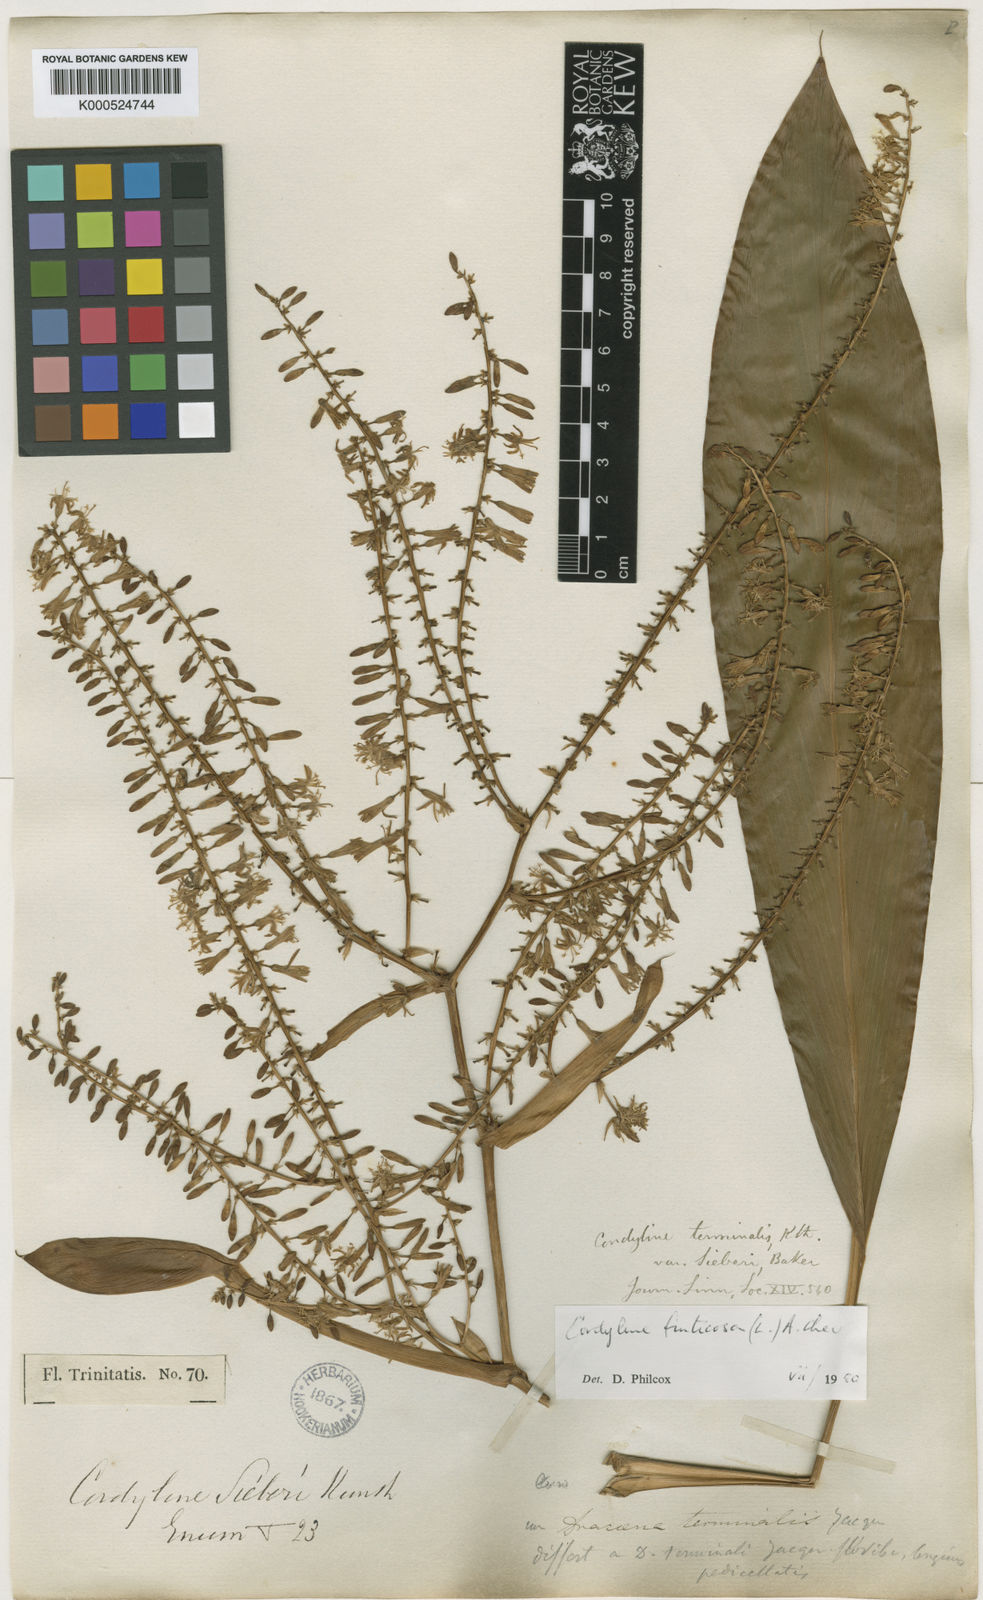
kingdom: Plantae
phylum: Tracheophyta
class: Liliopsida
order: Asparagales
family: Asparagaceae
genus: Cordyline
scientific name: Cordyline fruticosa
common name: Good-luck-plant
